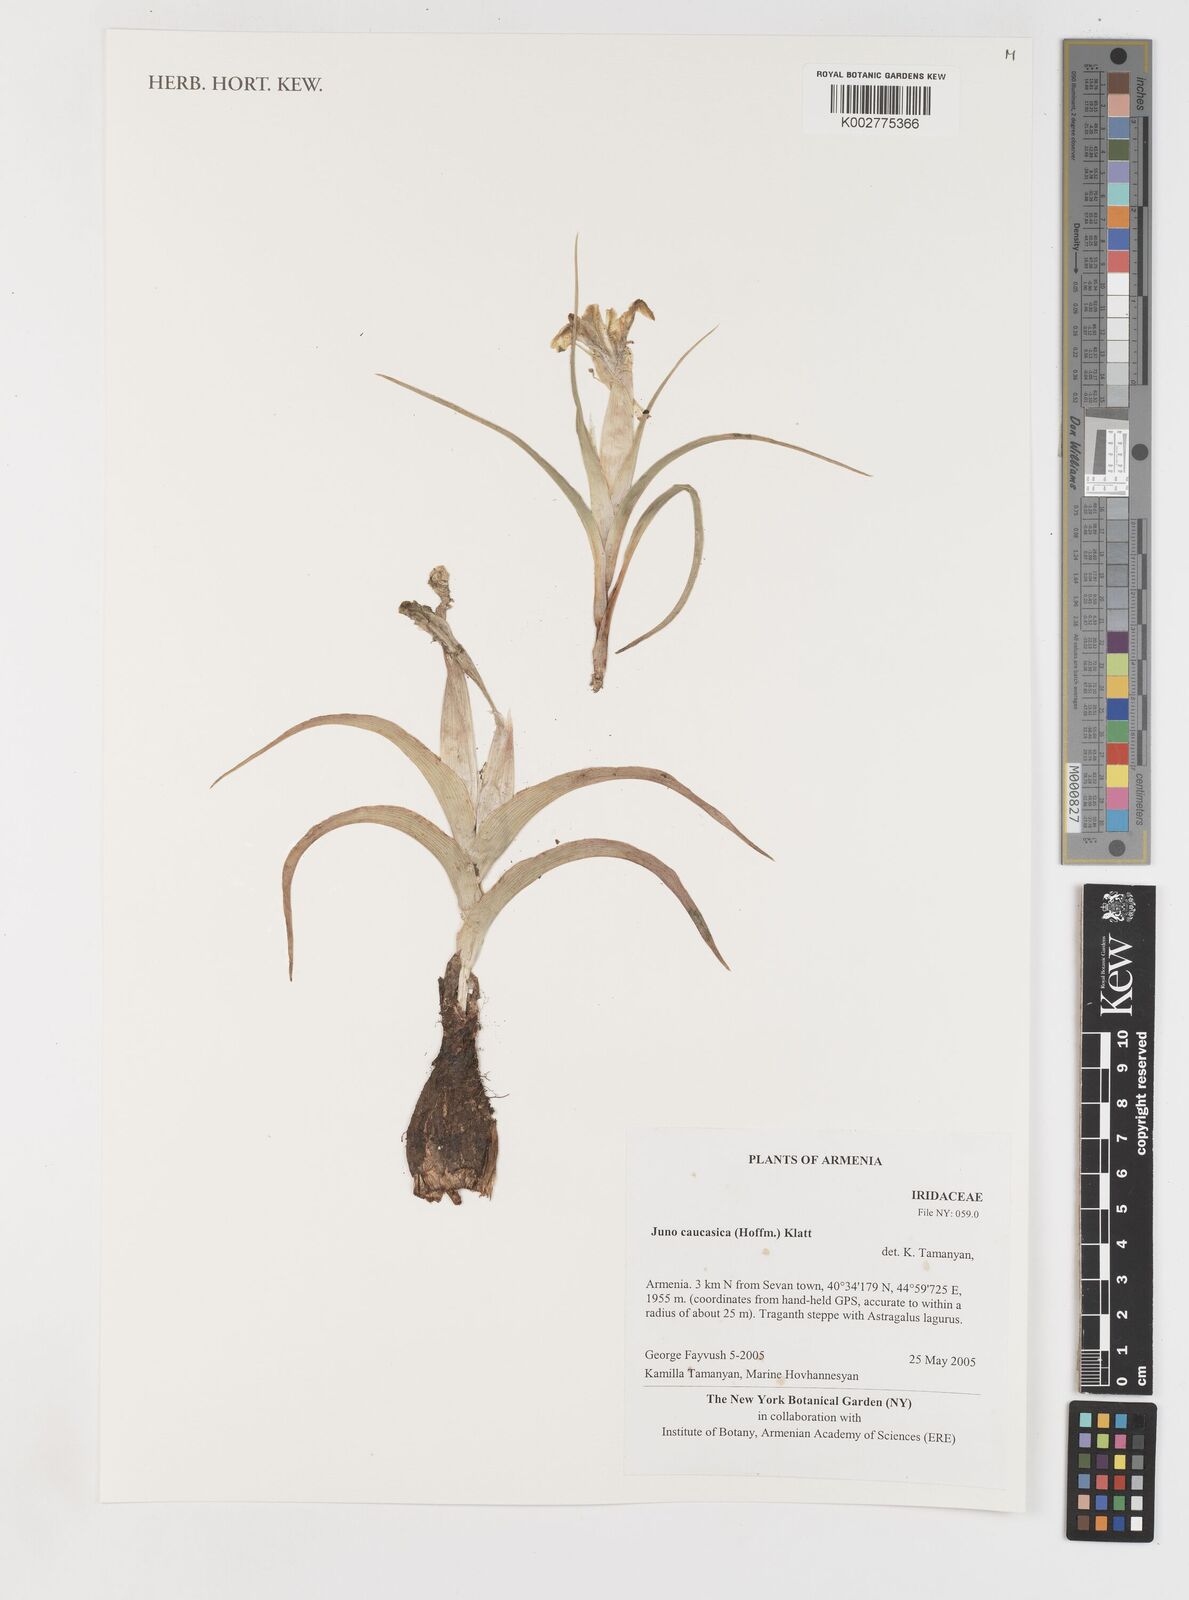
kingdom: Plantae
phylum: Tracheophyta
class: Liliopsida
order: Asparagales
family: Iridaceae
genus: Iris
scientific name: Iris
